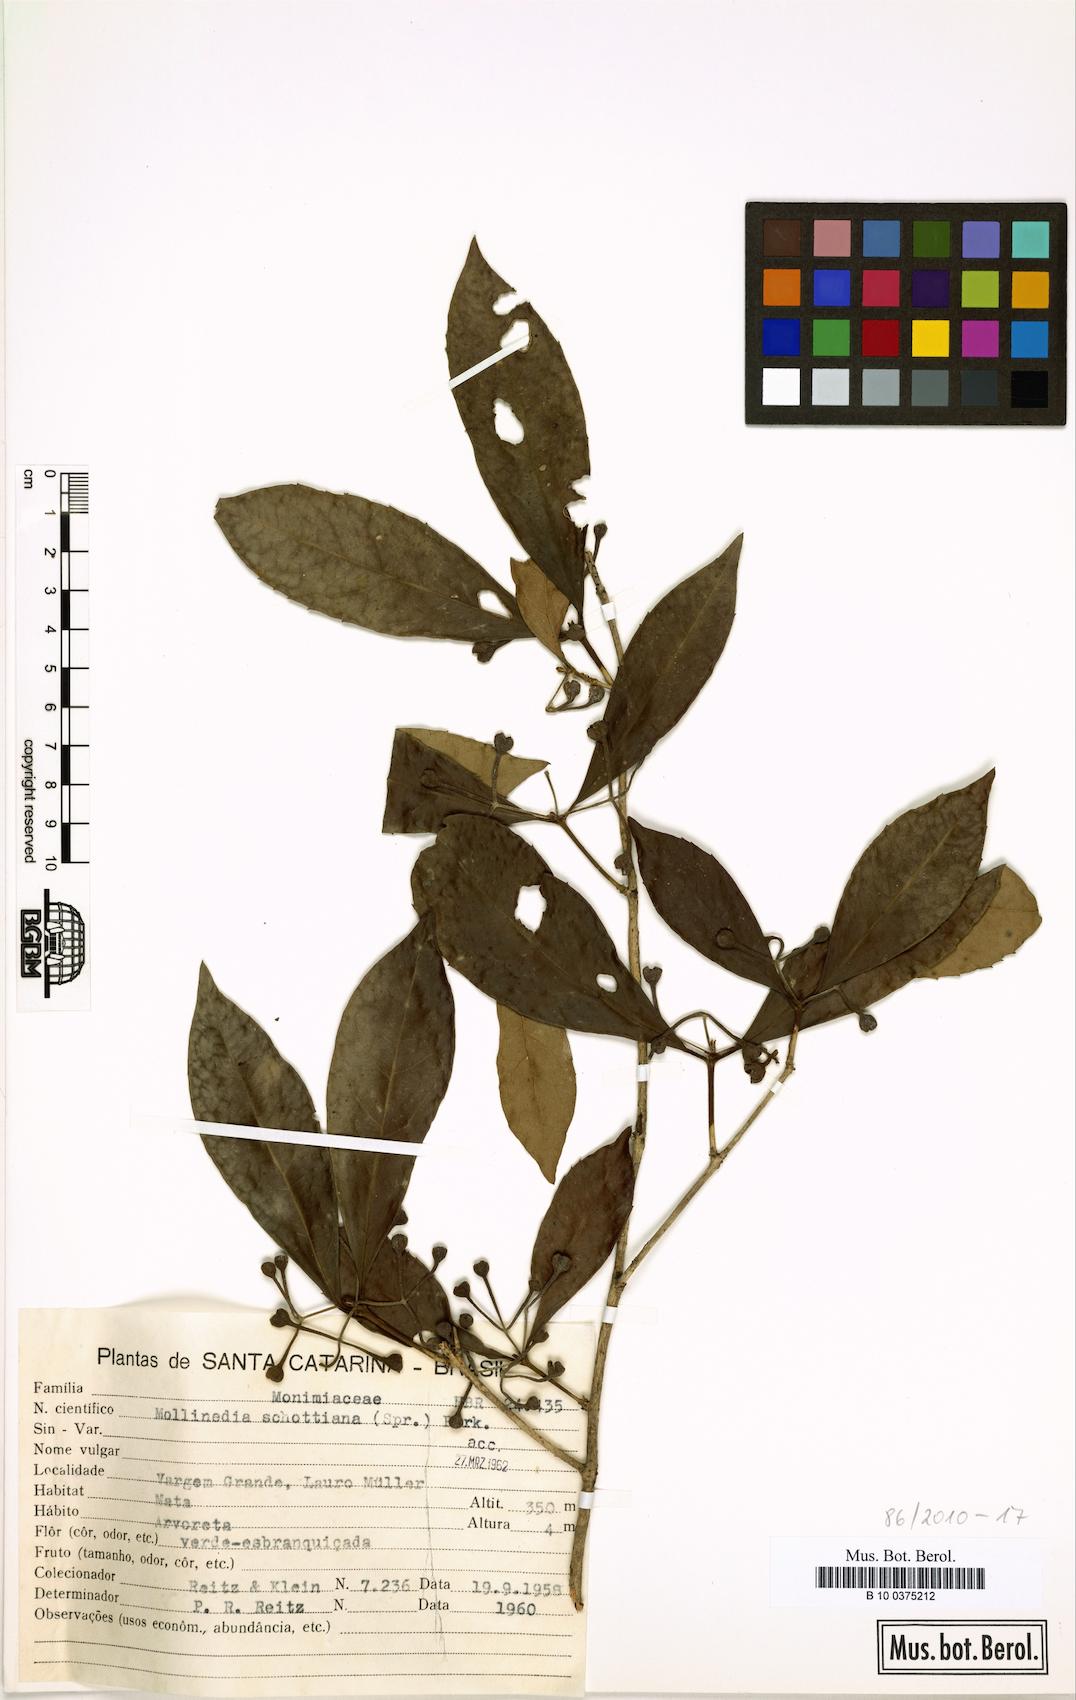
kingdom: Plantae
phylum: Tracheophyta
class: Magnoliopsida
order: Laurales
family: Monimiaceae
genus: Mollinedia
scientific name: Mollinedia umbellata
